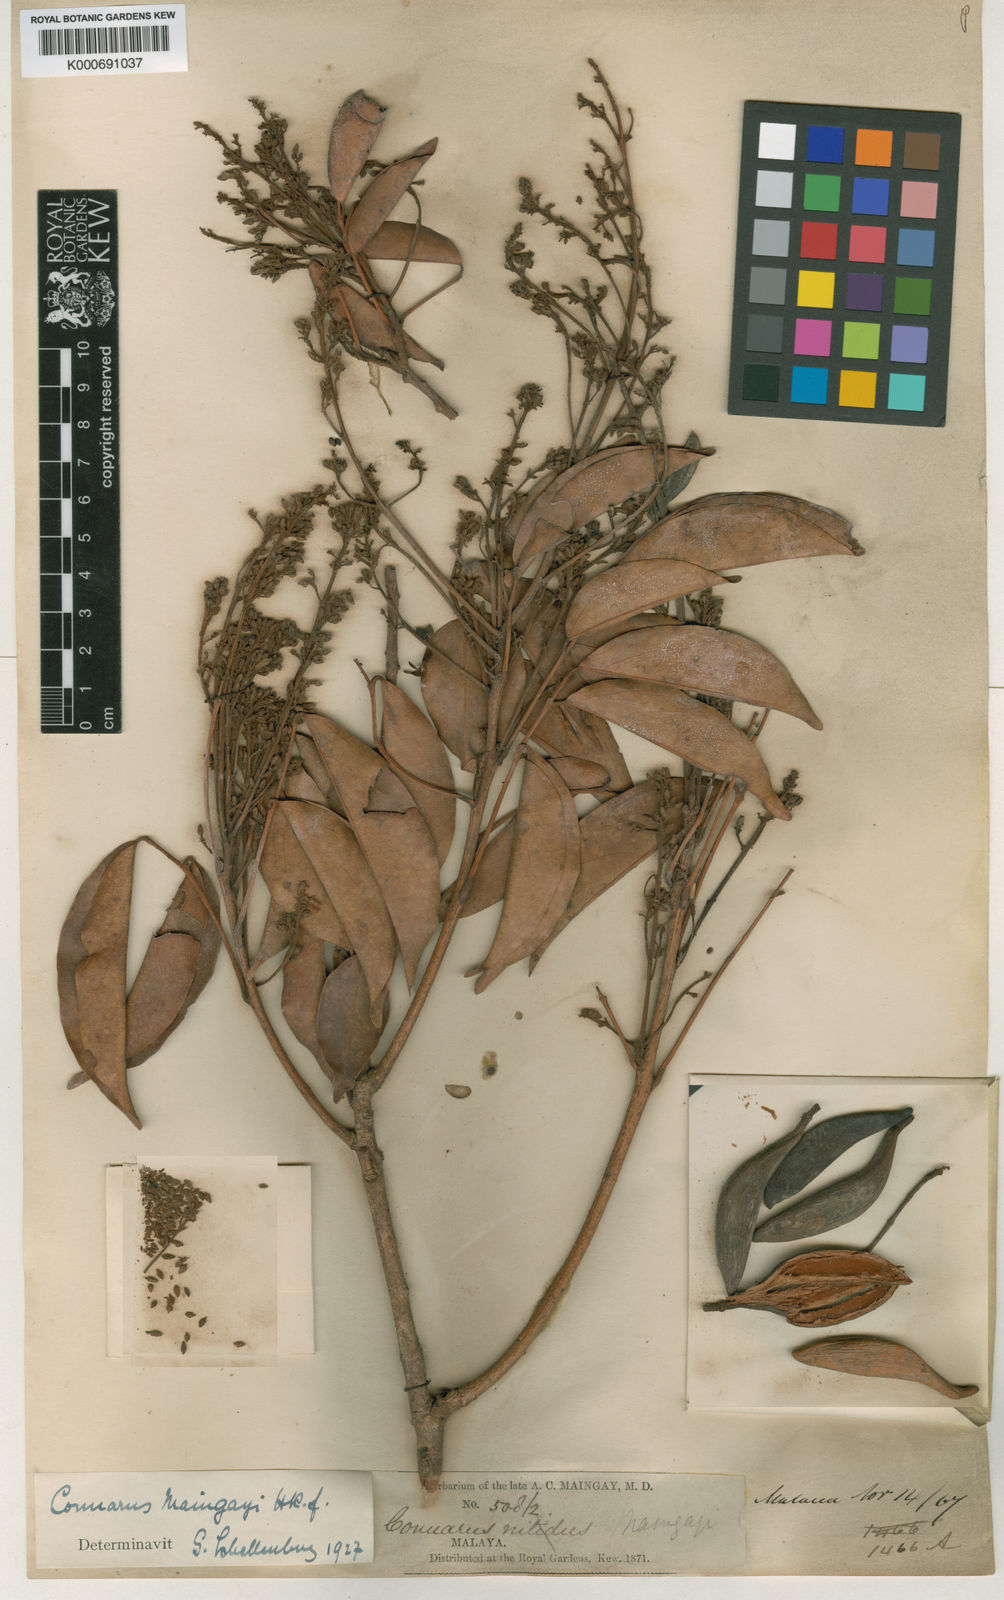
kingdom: Plantae
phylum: Tracheophyta
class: Magnoliopsida
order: Oxalidales
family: Connaraceae
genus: Connarus
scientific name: Connarus semidecandrus
